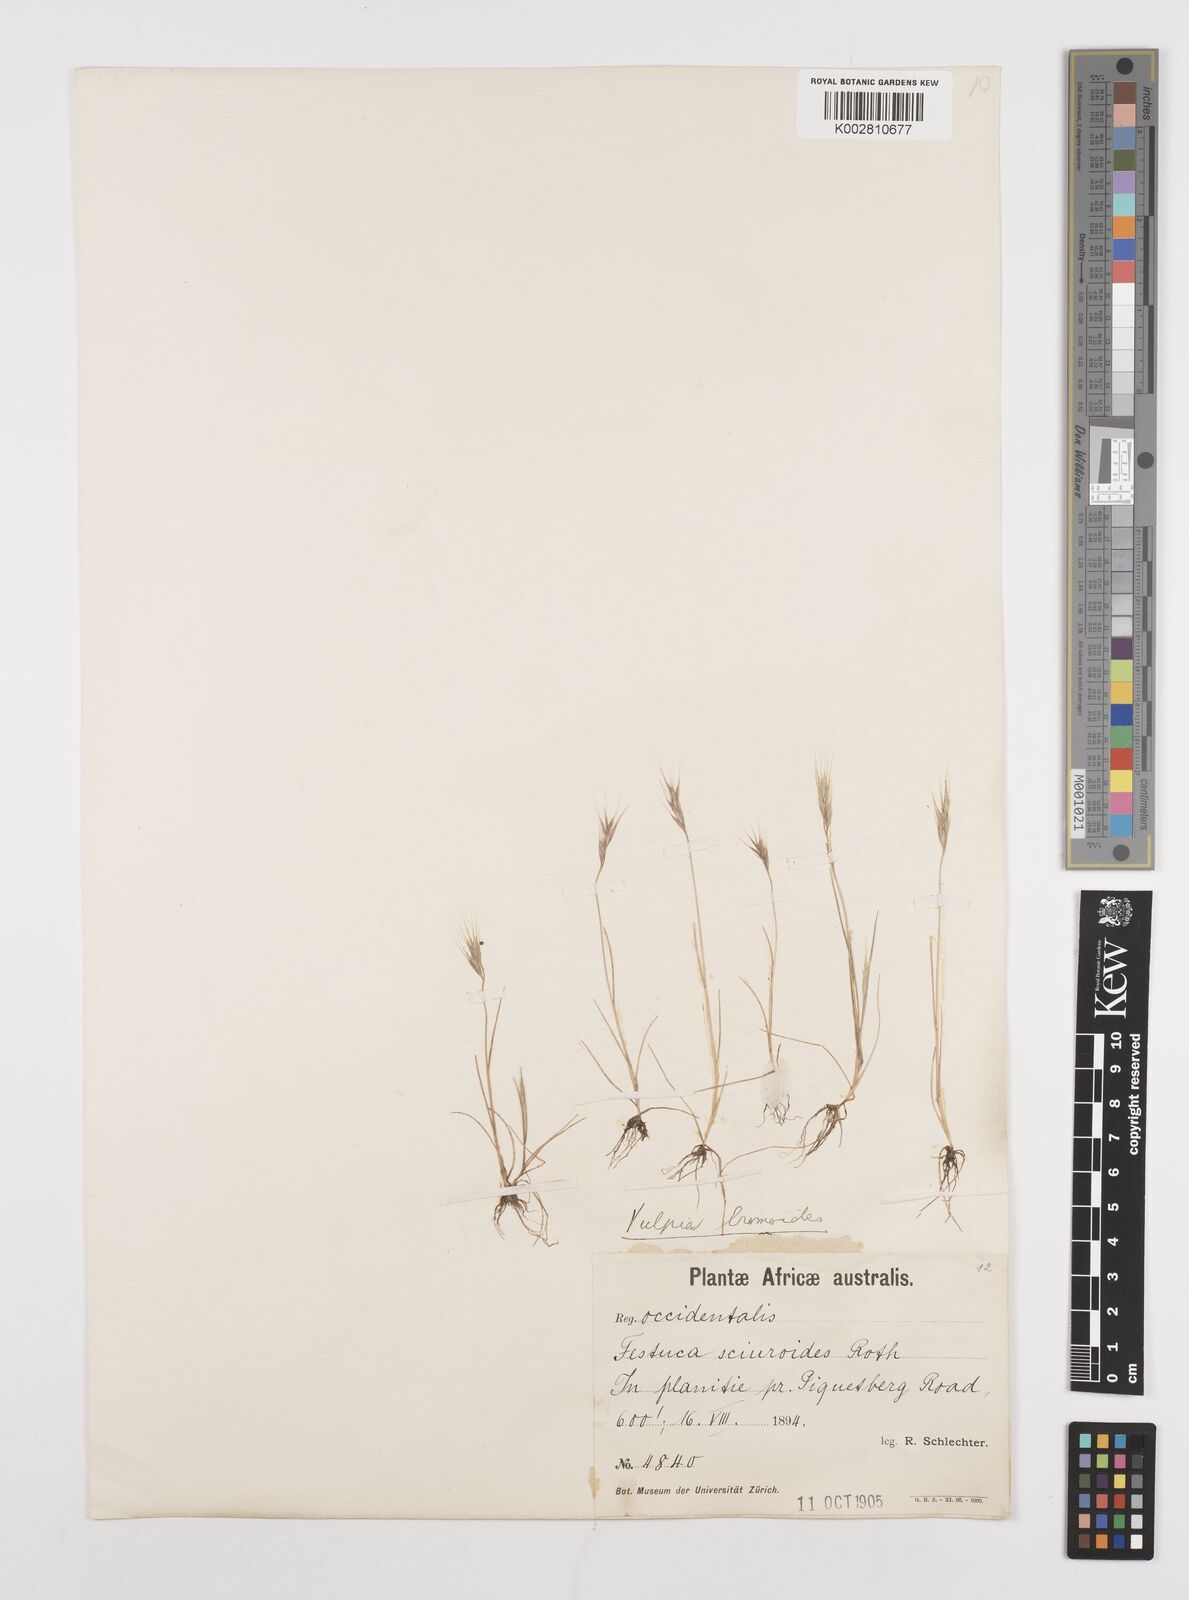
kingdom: Plantae
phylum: Tracheophyta
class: Liliopsida
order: Poales
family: Poaceae
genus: Festuca
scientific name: Festuca bromoides
